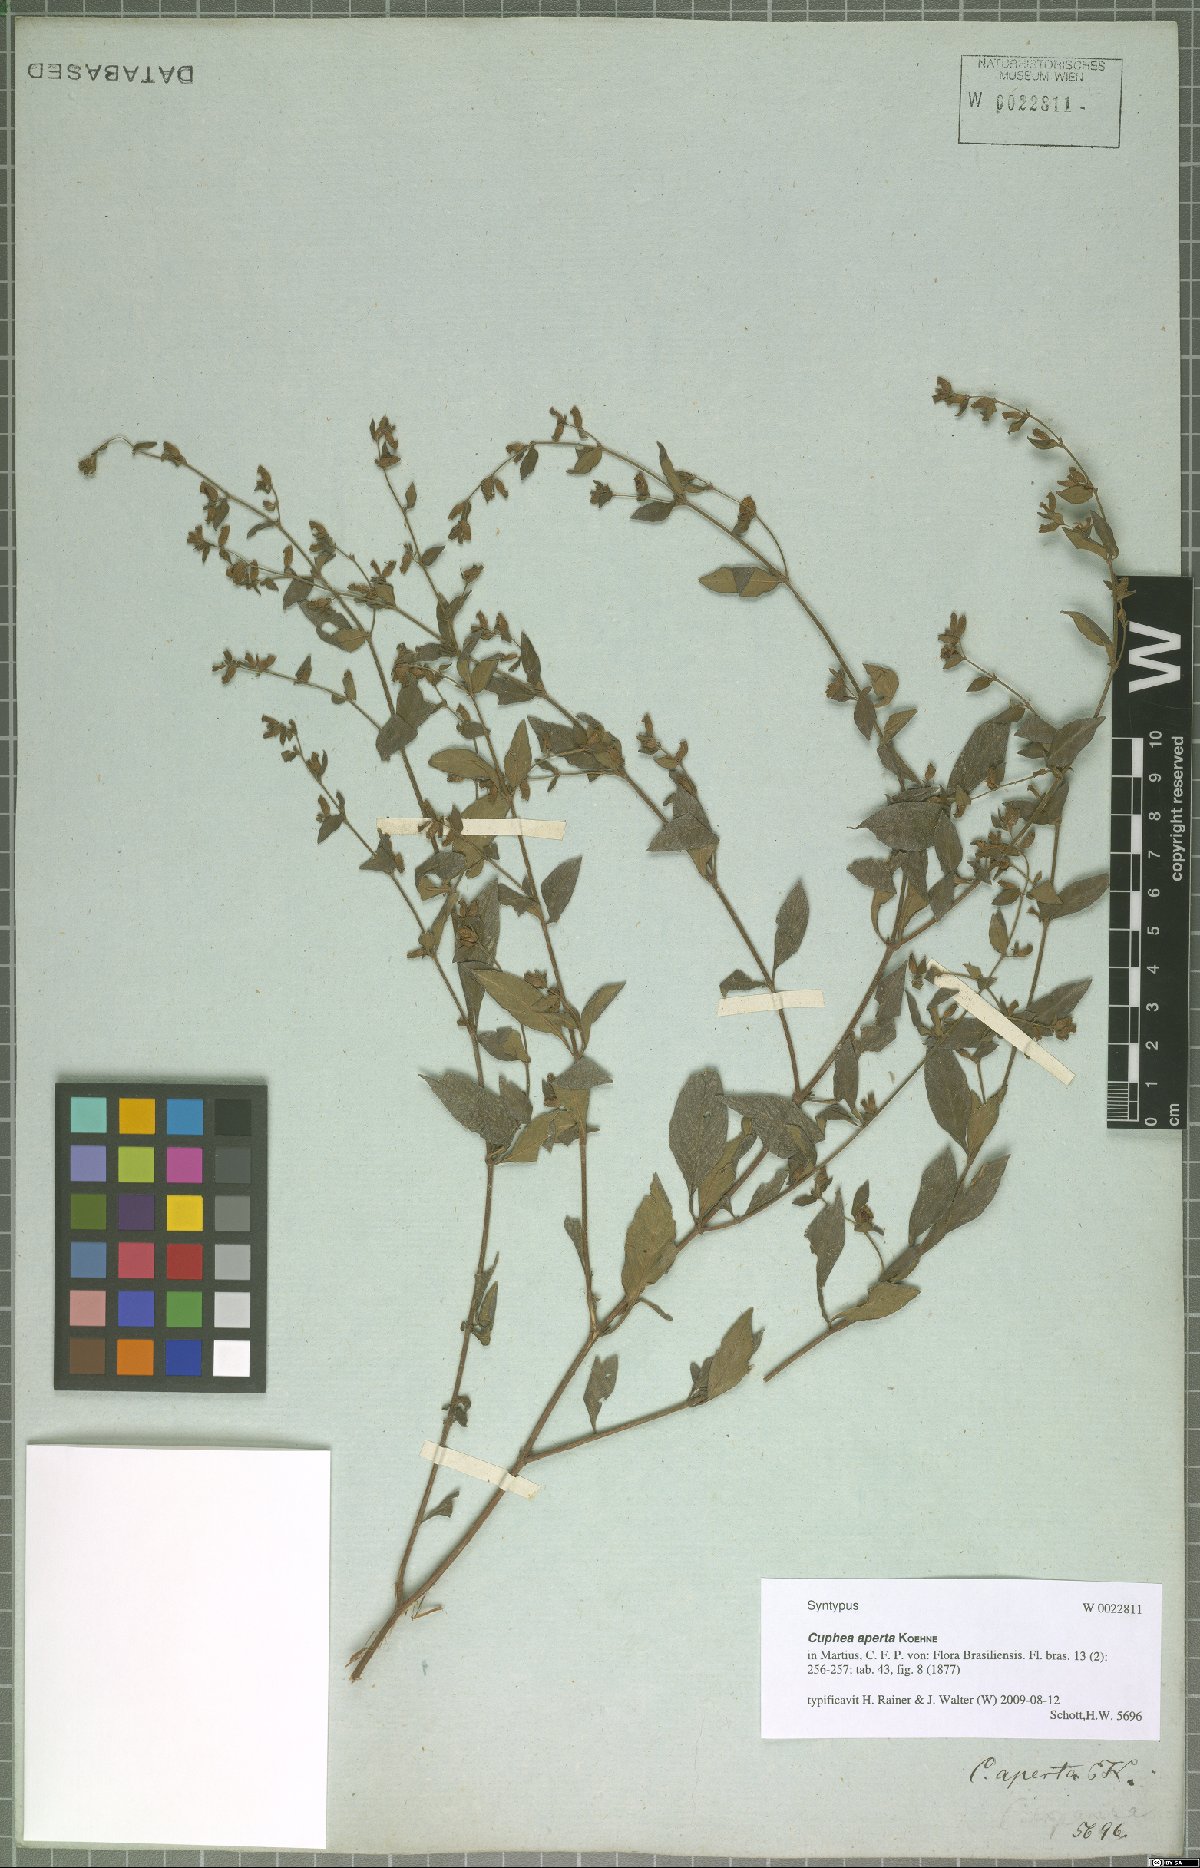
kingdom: Plantae
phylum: Tracheophyta
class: Magnoliopsida
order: Myrtales
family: Lythraceae
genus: Cuphea
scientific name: Cuphea aperta
